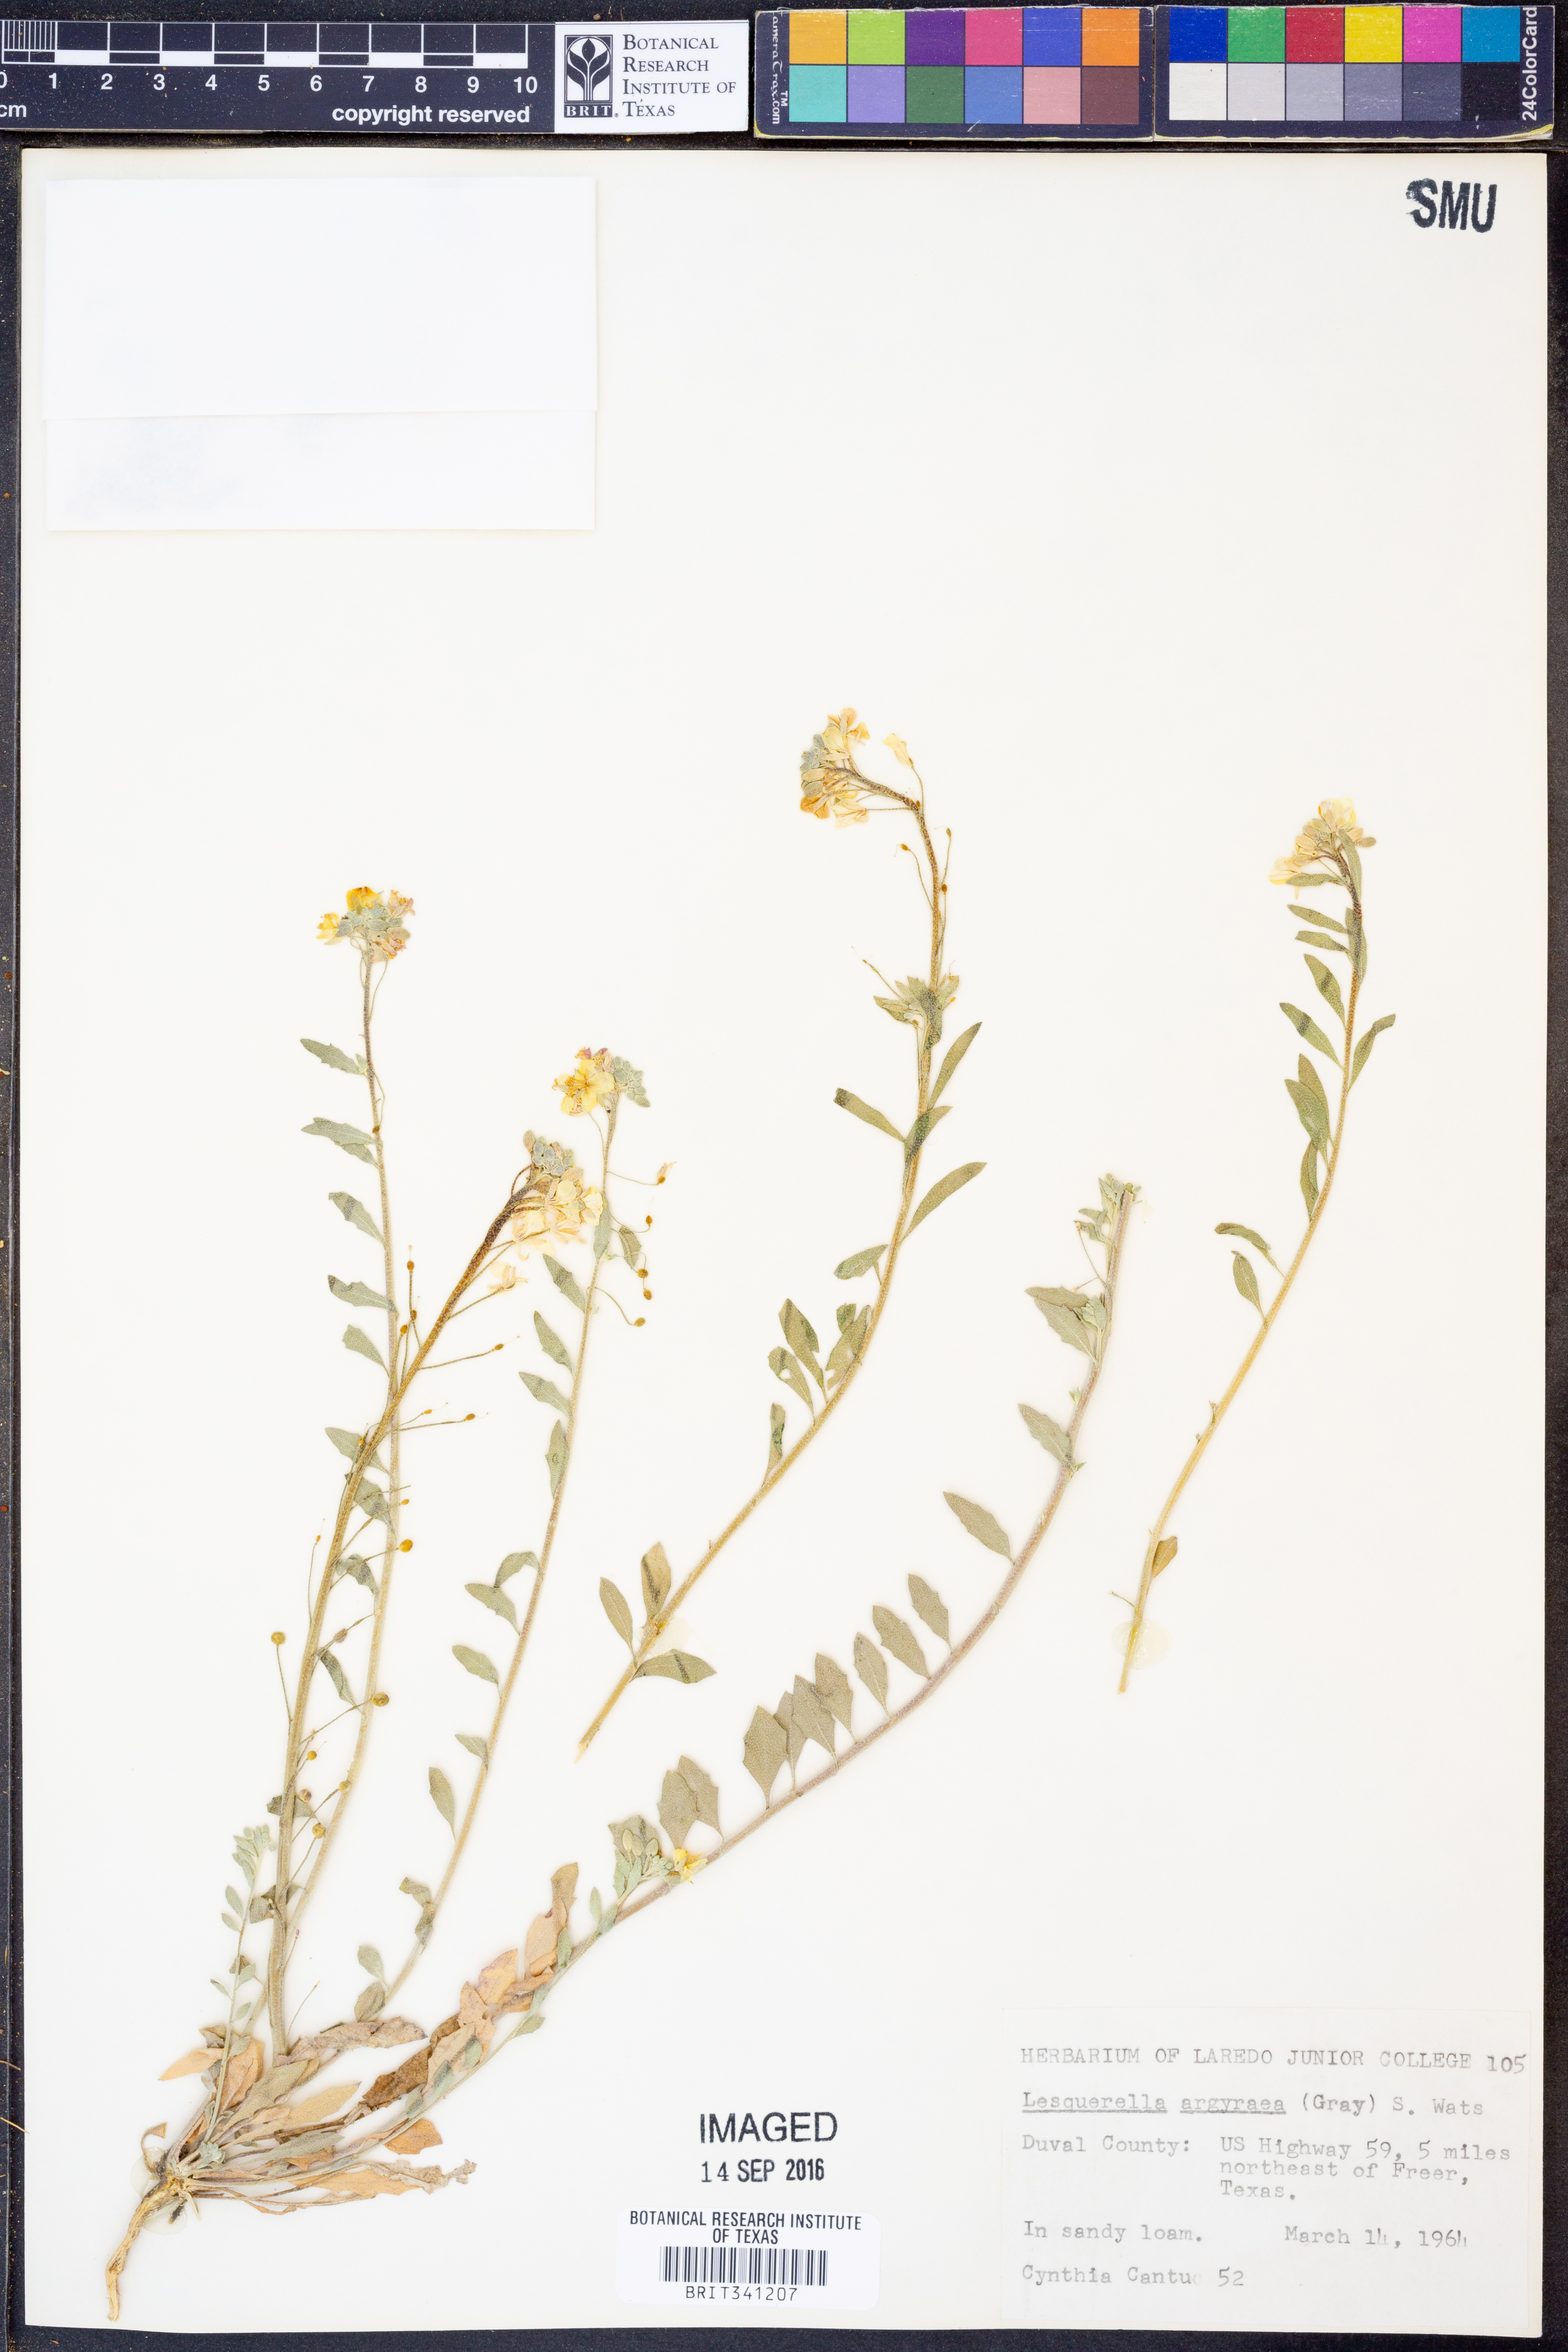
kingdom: Plantae
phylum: Tracheophyta
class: Magnoliopsida
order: Brassicales
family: Brassicaceae
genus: Physaria
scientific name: Physaria argyraea
